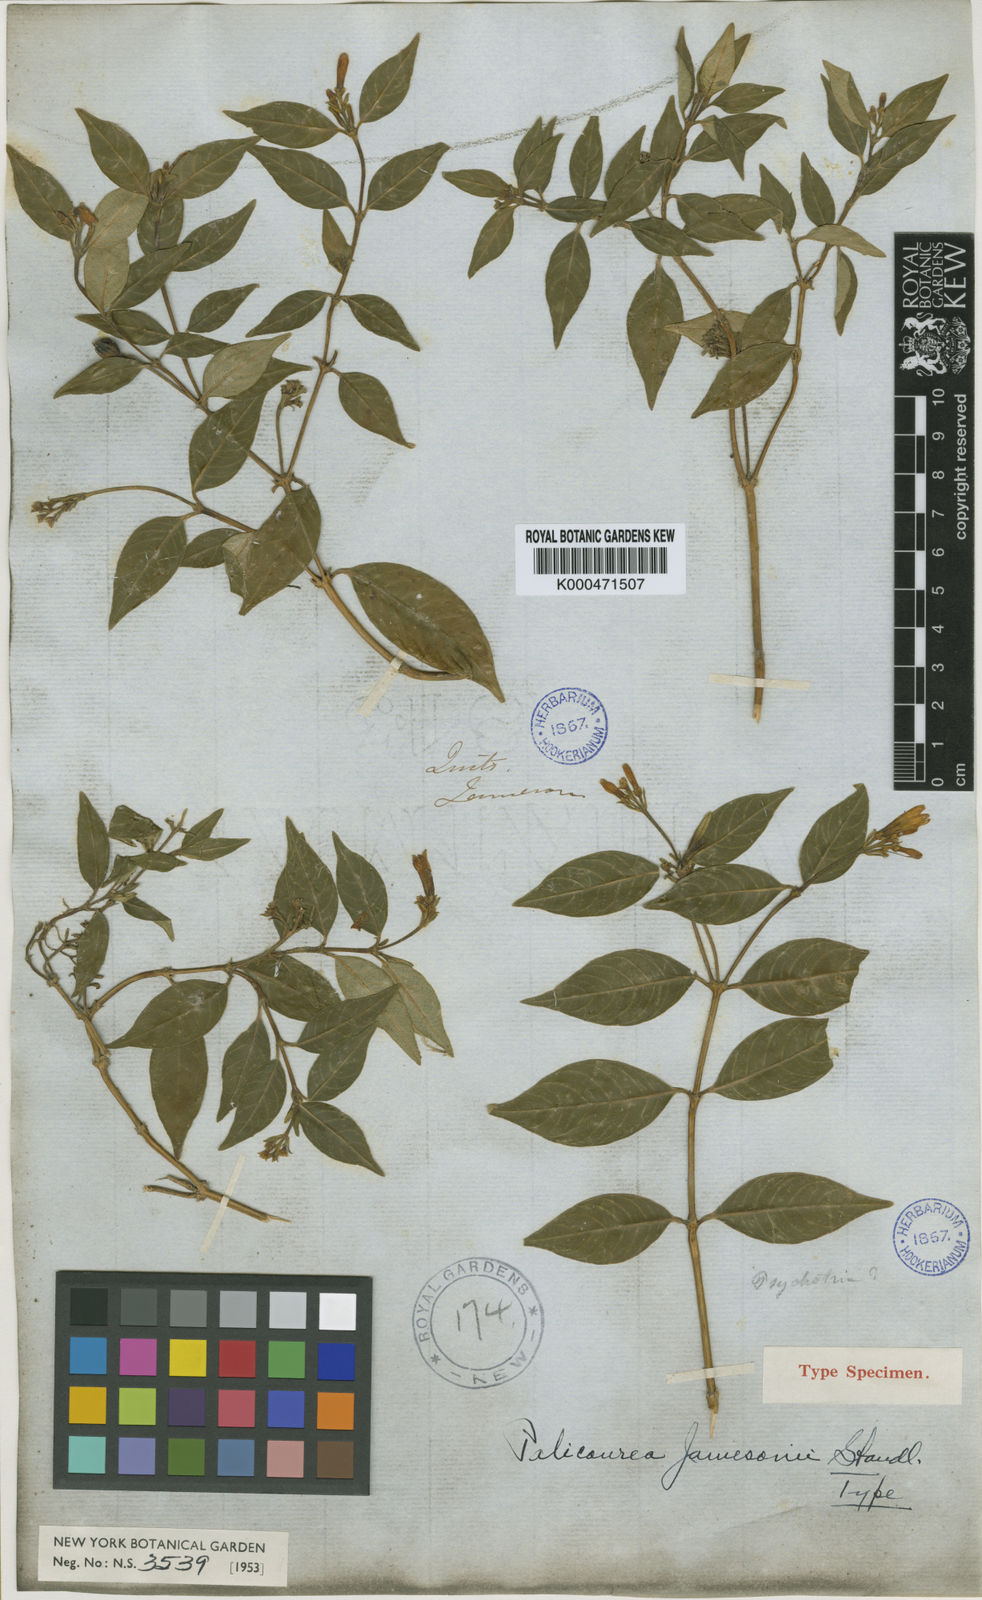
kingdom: Plantae
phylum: Tracheophyta
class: Magnoliopsida
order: Gentianales
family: Rubiaceae
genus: Palicourea
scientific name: Palicourea lineata
